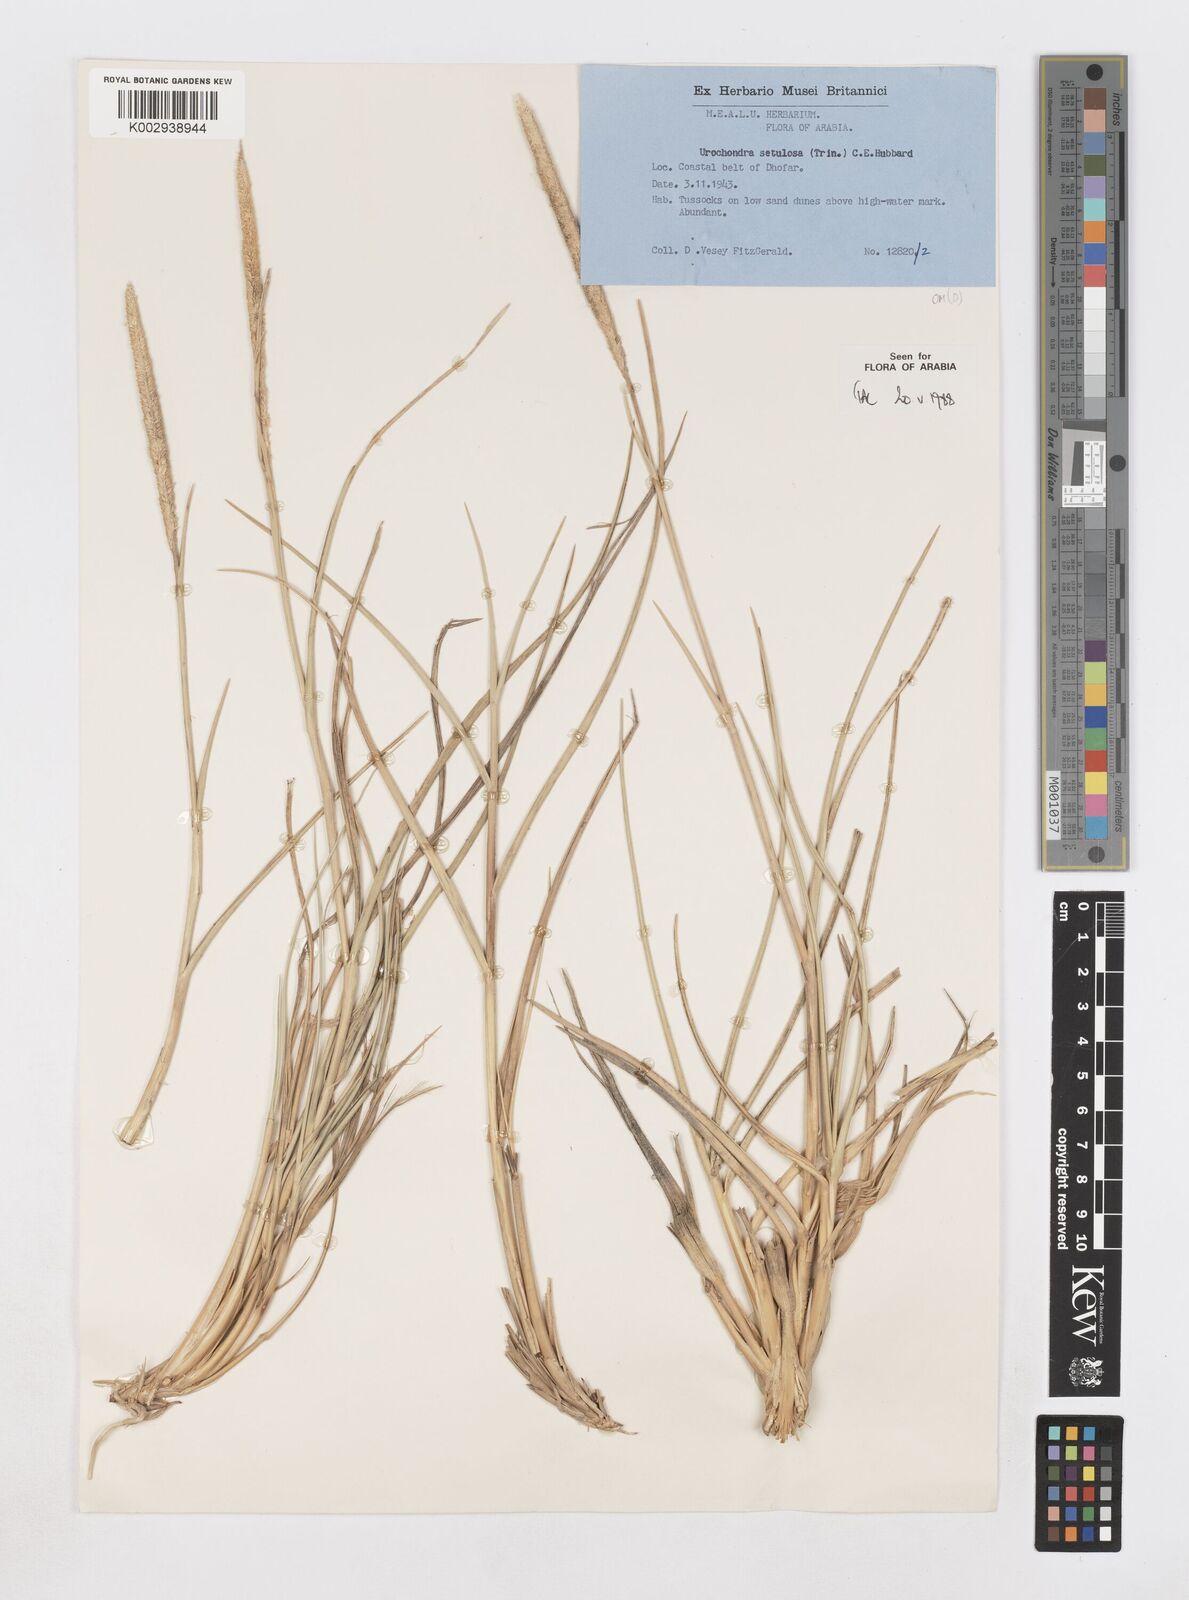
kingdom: Plantae
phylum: Tracheophyta
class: Liliopsida
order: Poales
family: Poaceae
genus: Urochondra
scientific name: Urochondra setulosa
